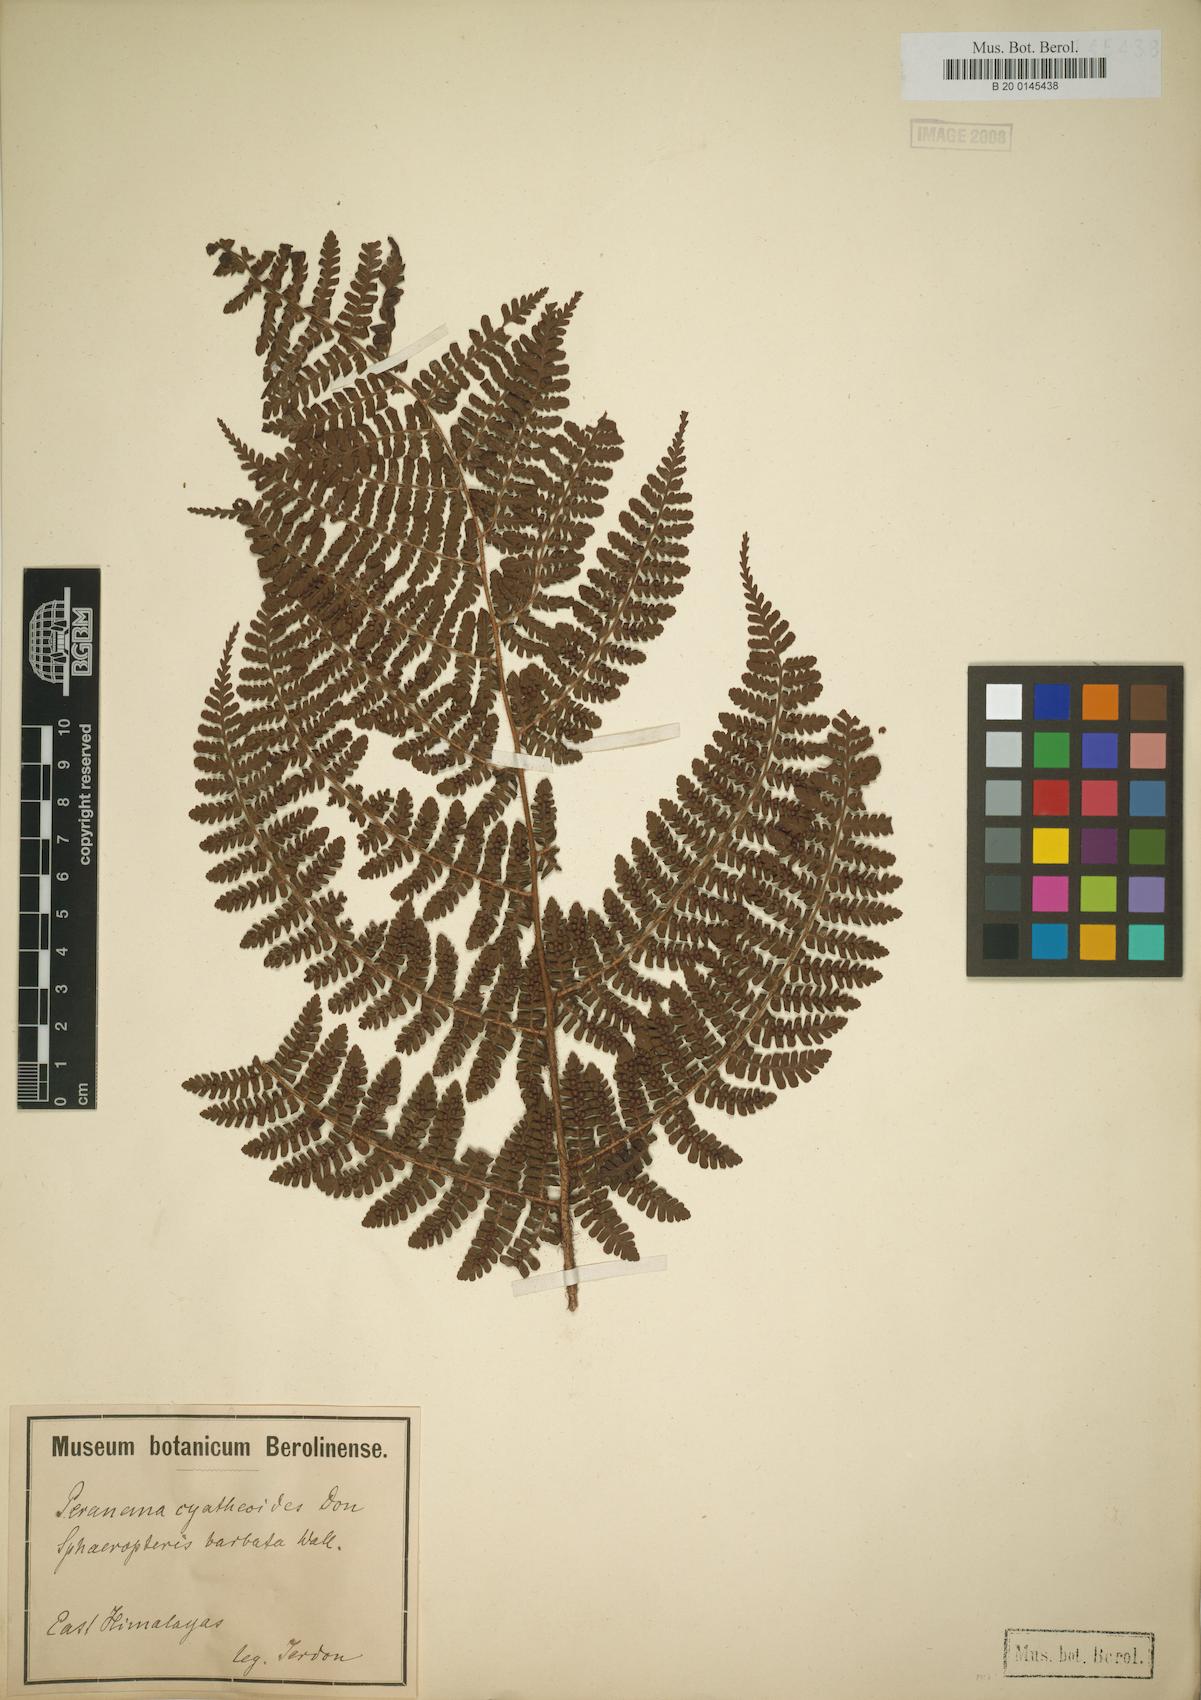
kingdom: Plantae
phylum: Tracheophyta
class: Polypodiopsida
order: Polypodiales
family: Dryopteridaceae
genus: Dryopteris
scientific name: Dryopteris peranema
